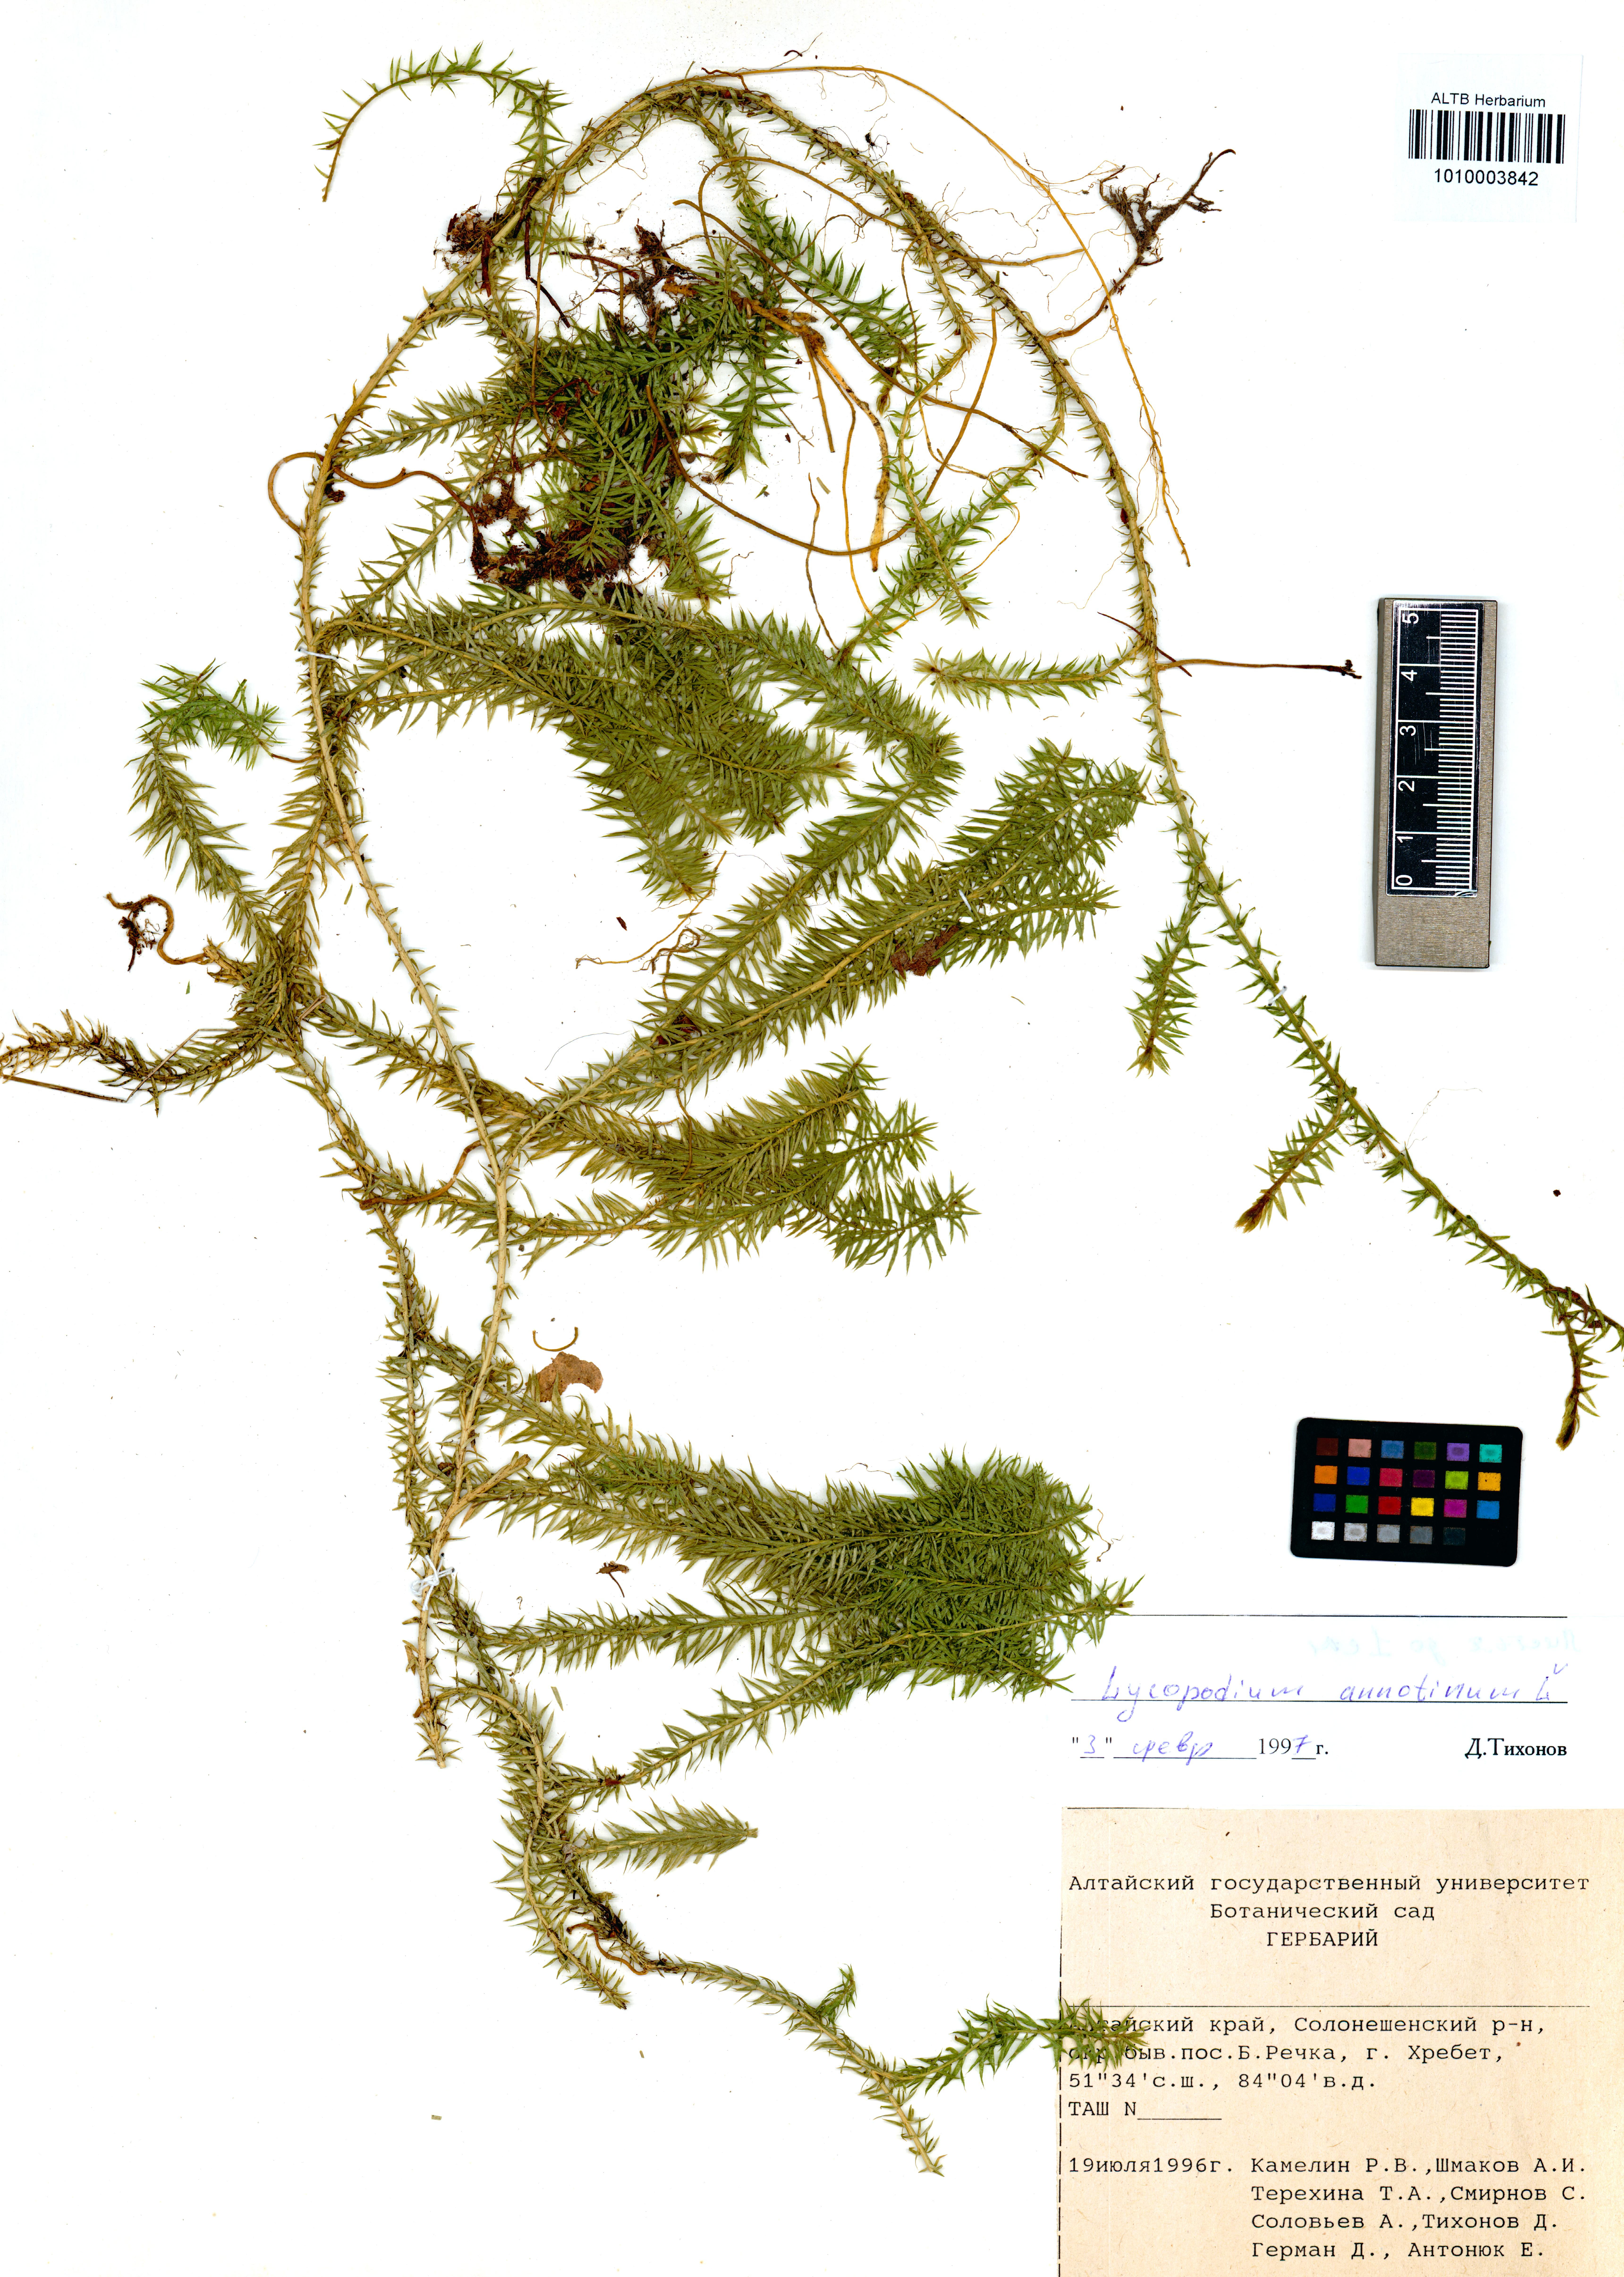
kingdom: Plantae
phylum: Tracheophyta
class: Lycopodiopsida
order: Lycopodiales
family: Lycopodiaceae
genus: Spinulum
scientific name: Spinulum annotinum
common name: Interrupted club-moss
